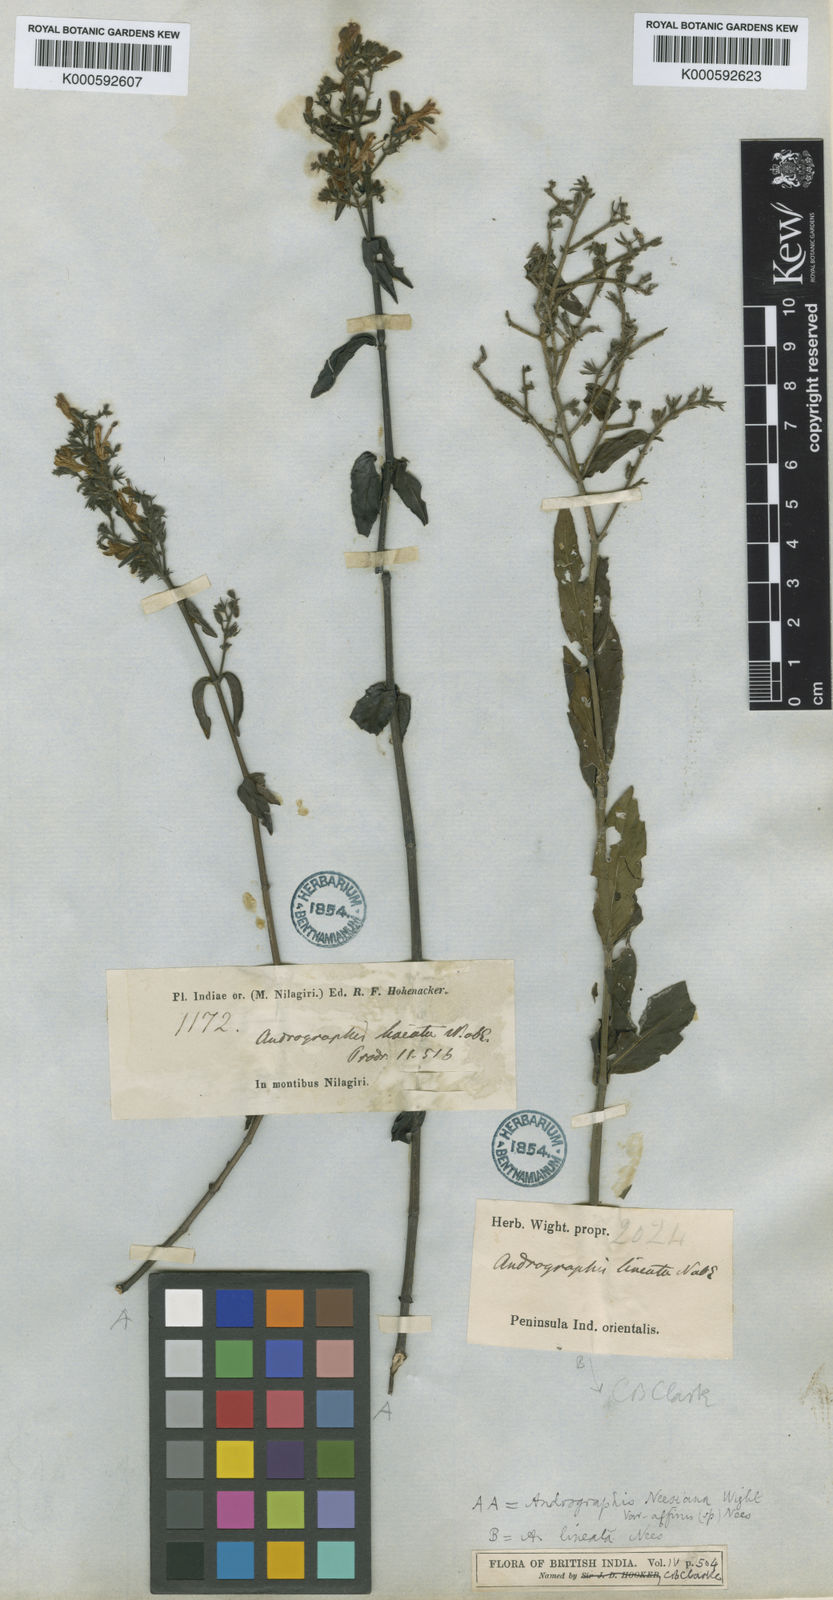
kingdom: Plantae
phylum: Tracheophyta
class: Magnoliopsida
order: Lamiales
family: Acanthaceae
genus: Andrographis
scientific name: Andrographis lineata
